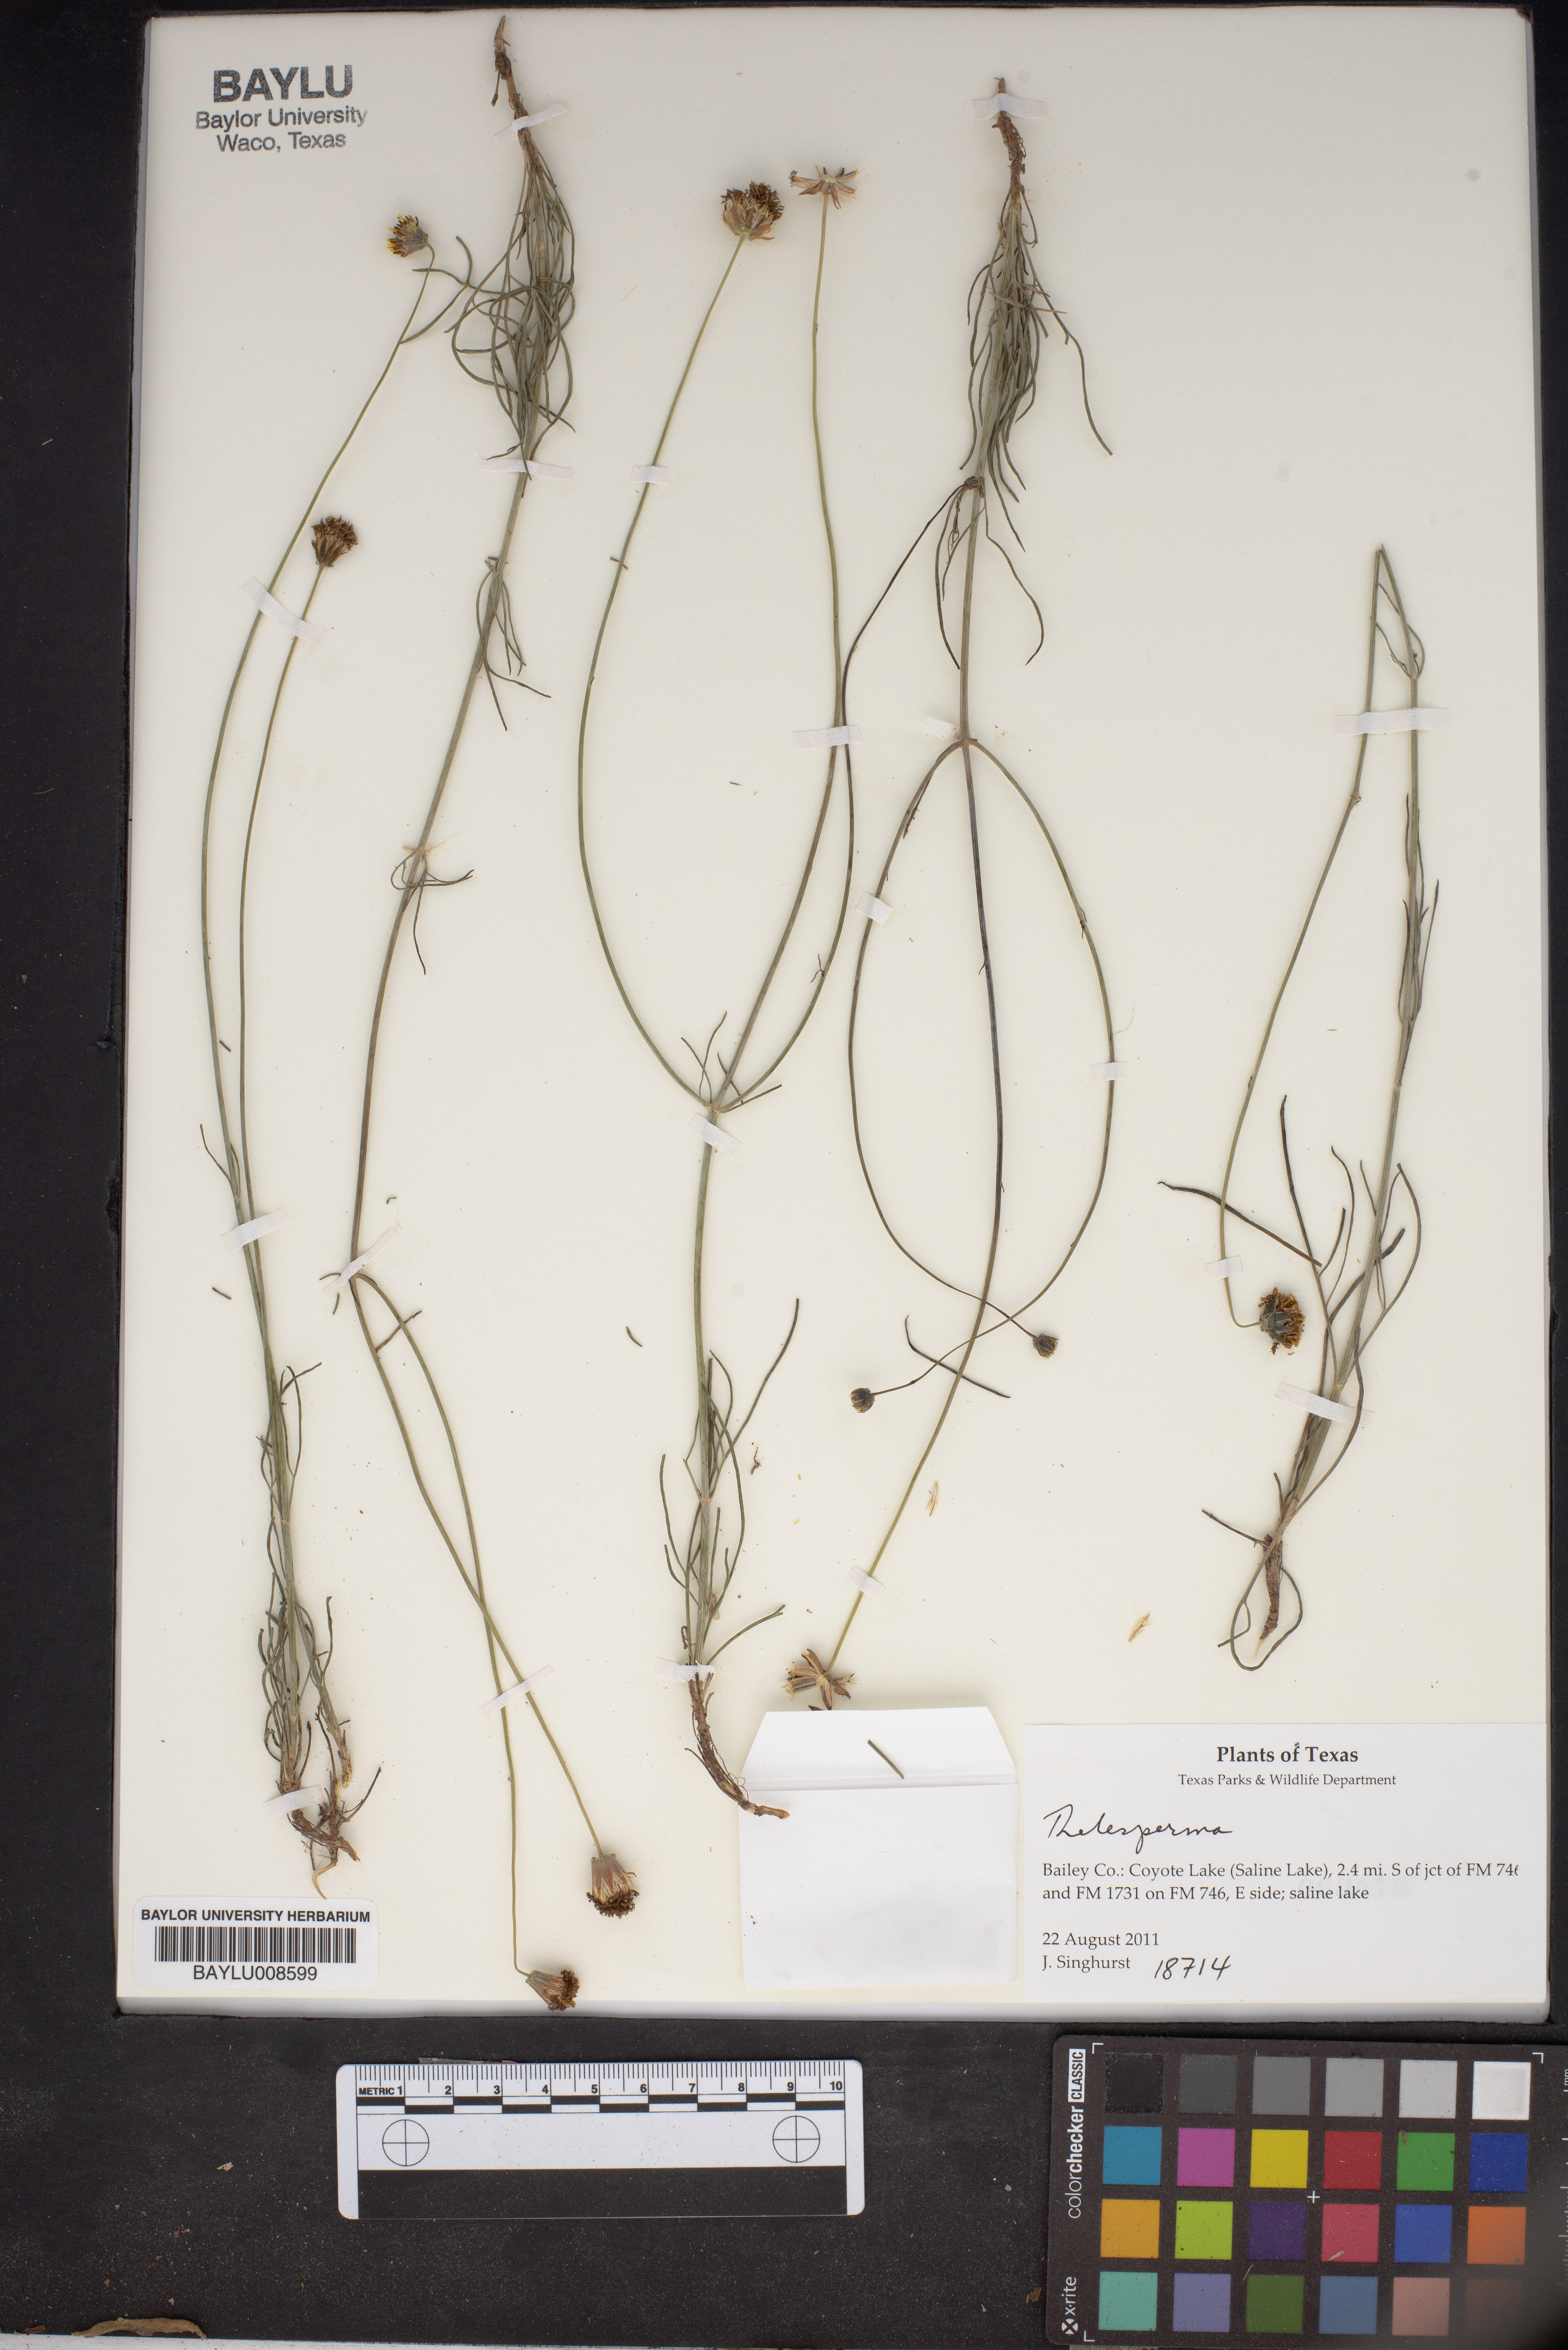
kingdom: Plantae
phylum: Tracheophyta
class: Magnoliopsida
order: Asterales
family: Asteraceae
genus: Thelesperma
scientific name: Thelesperma
